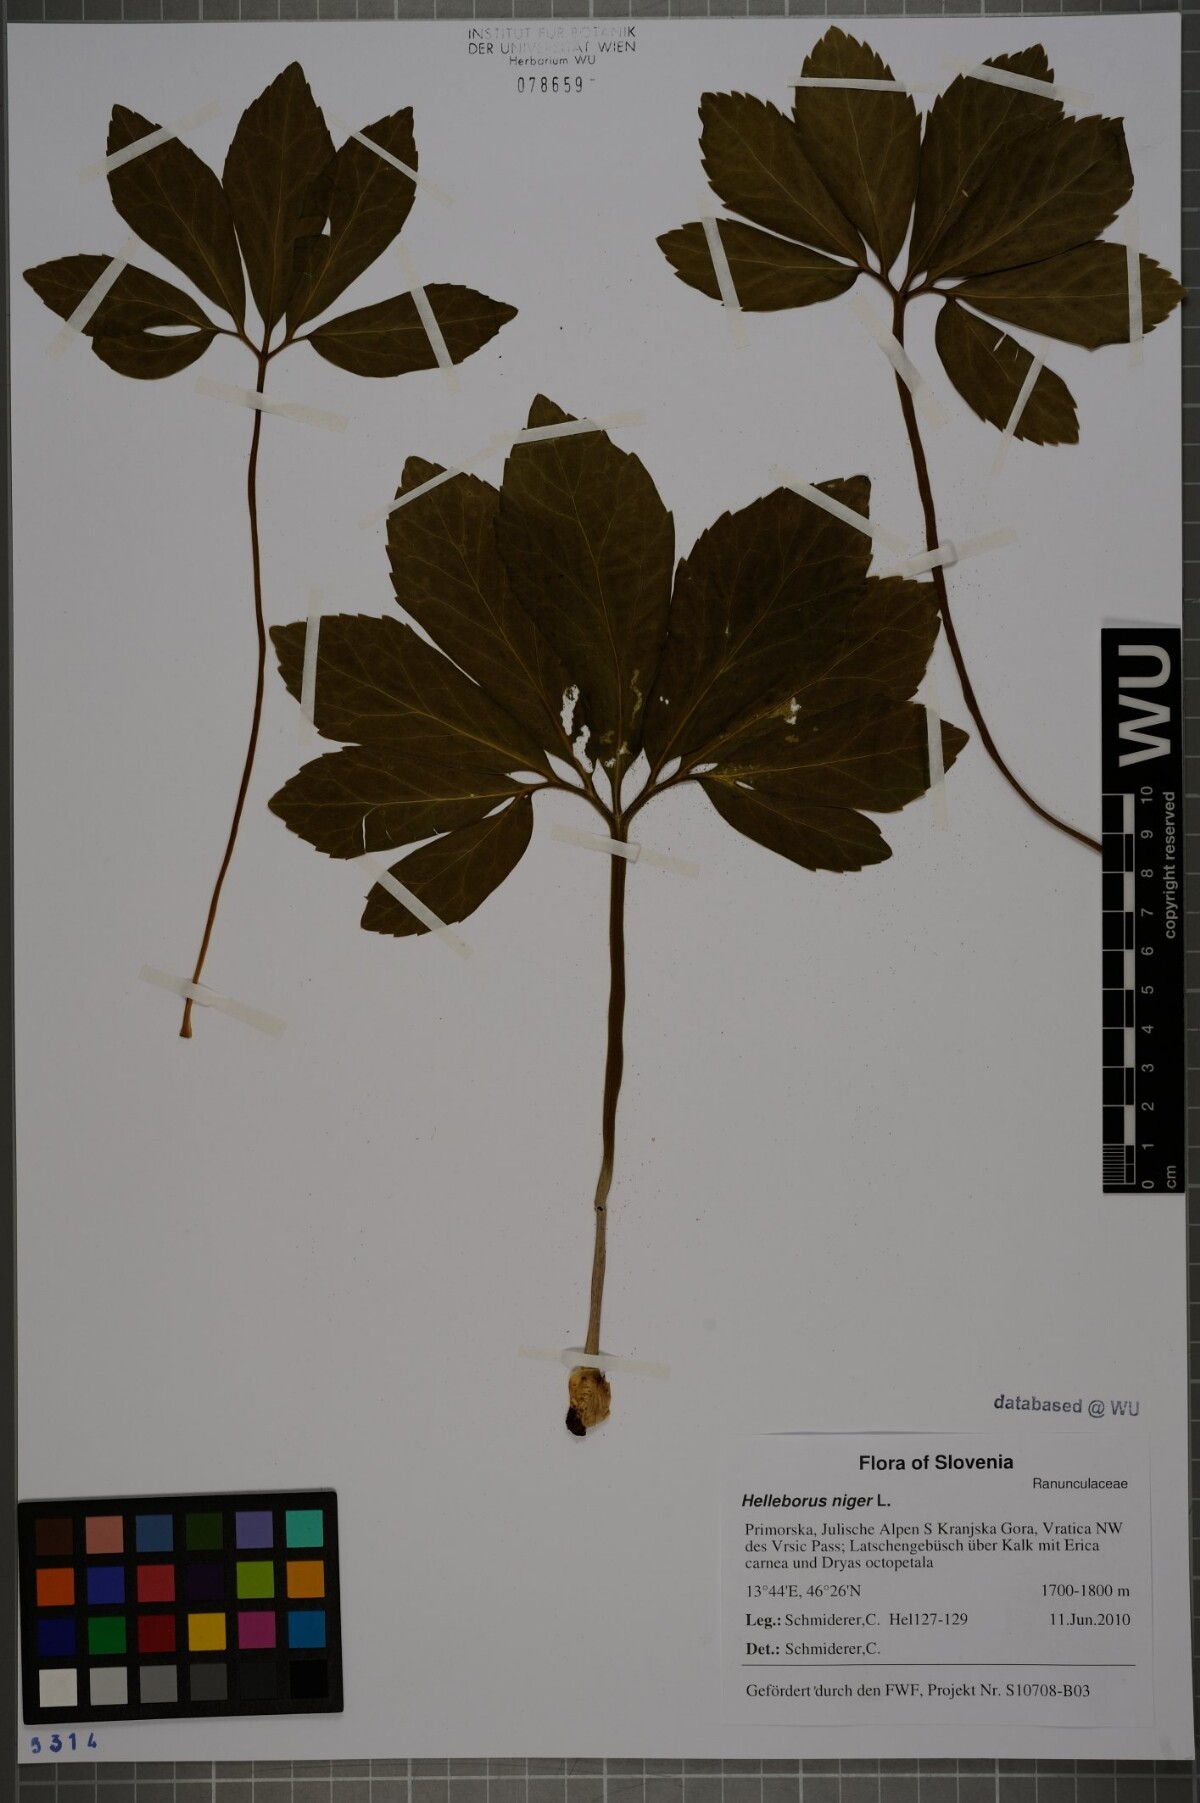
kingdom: Plantae
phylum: Tracheophyta
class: Magnoliopsida
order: Ranunculales
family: Ranunculaceae
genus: Helleborus
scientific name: Helleborus niger
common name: Black hellebore
